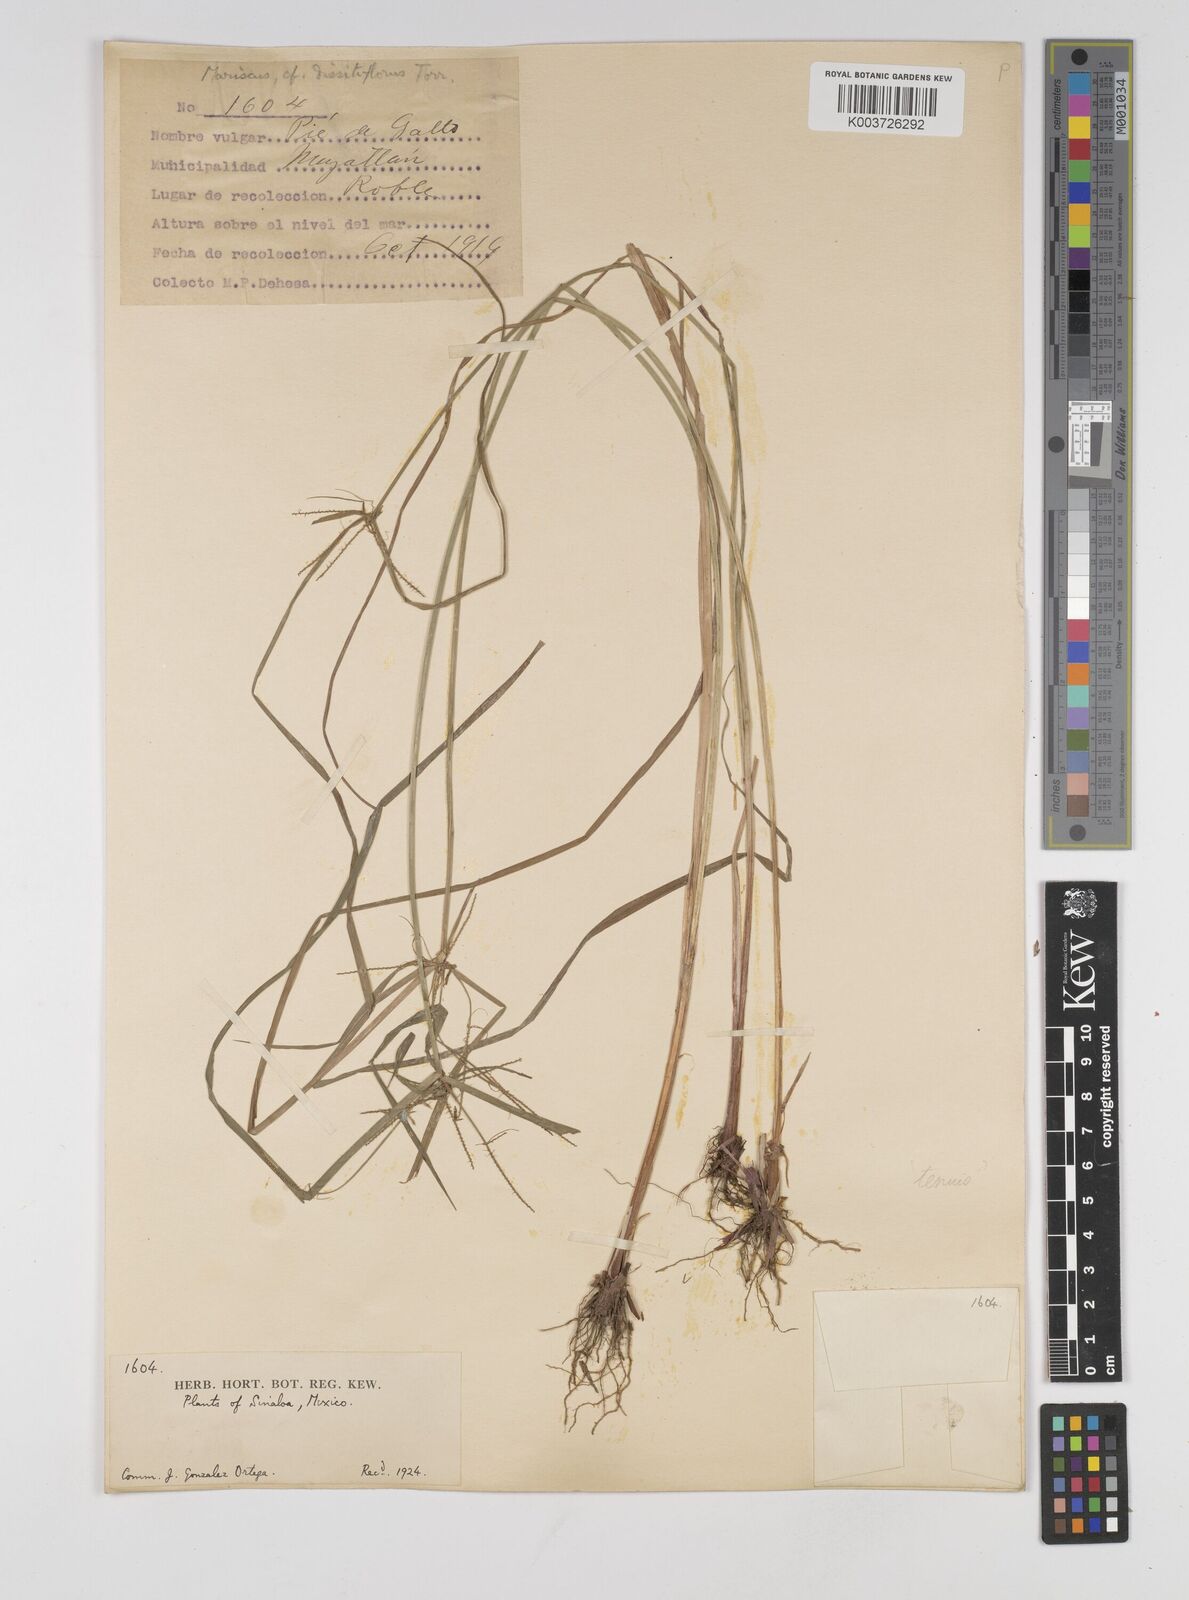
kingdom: Plantae
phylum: Tracheophyta
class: Liliopsida
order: Poales
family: Cyperaceae
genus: Cyperus
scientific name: Cyperus thyrsiflorus
